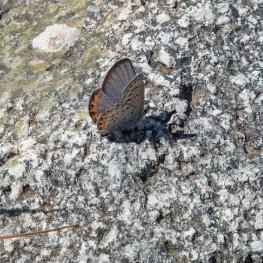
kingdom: Animalia
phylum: Arthropoda
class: Insecta
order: Lepidoptera
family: Lycaenidae
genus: Plebejus
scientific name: Plebejus lupini
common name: Lupine Blue
